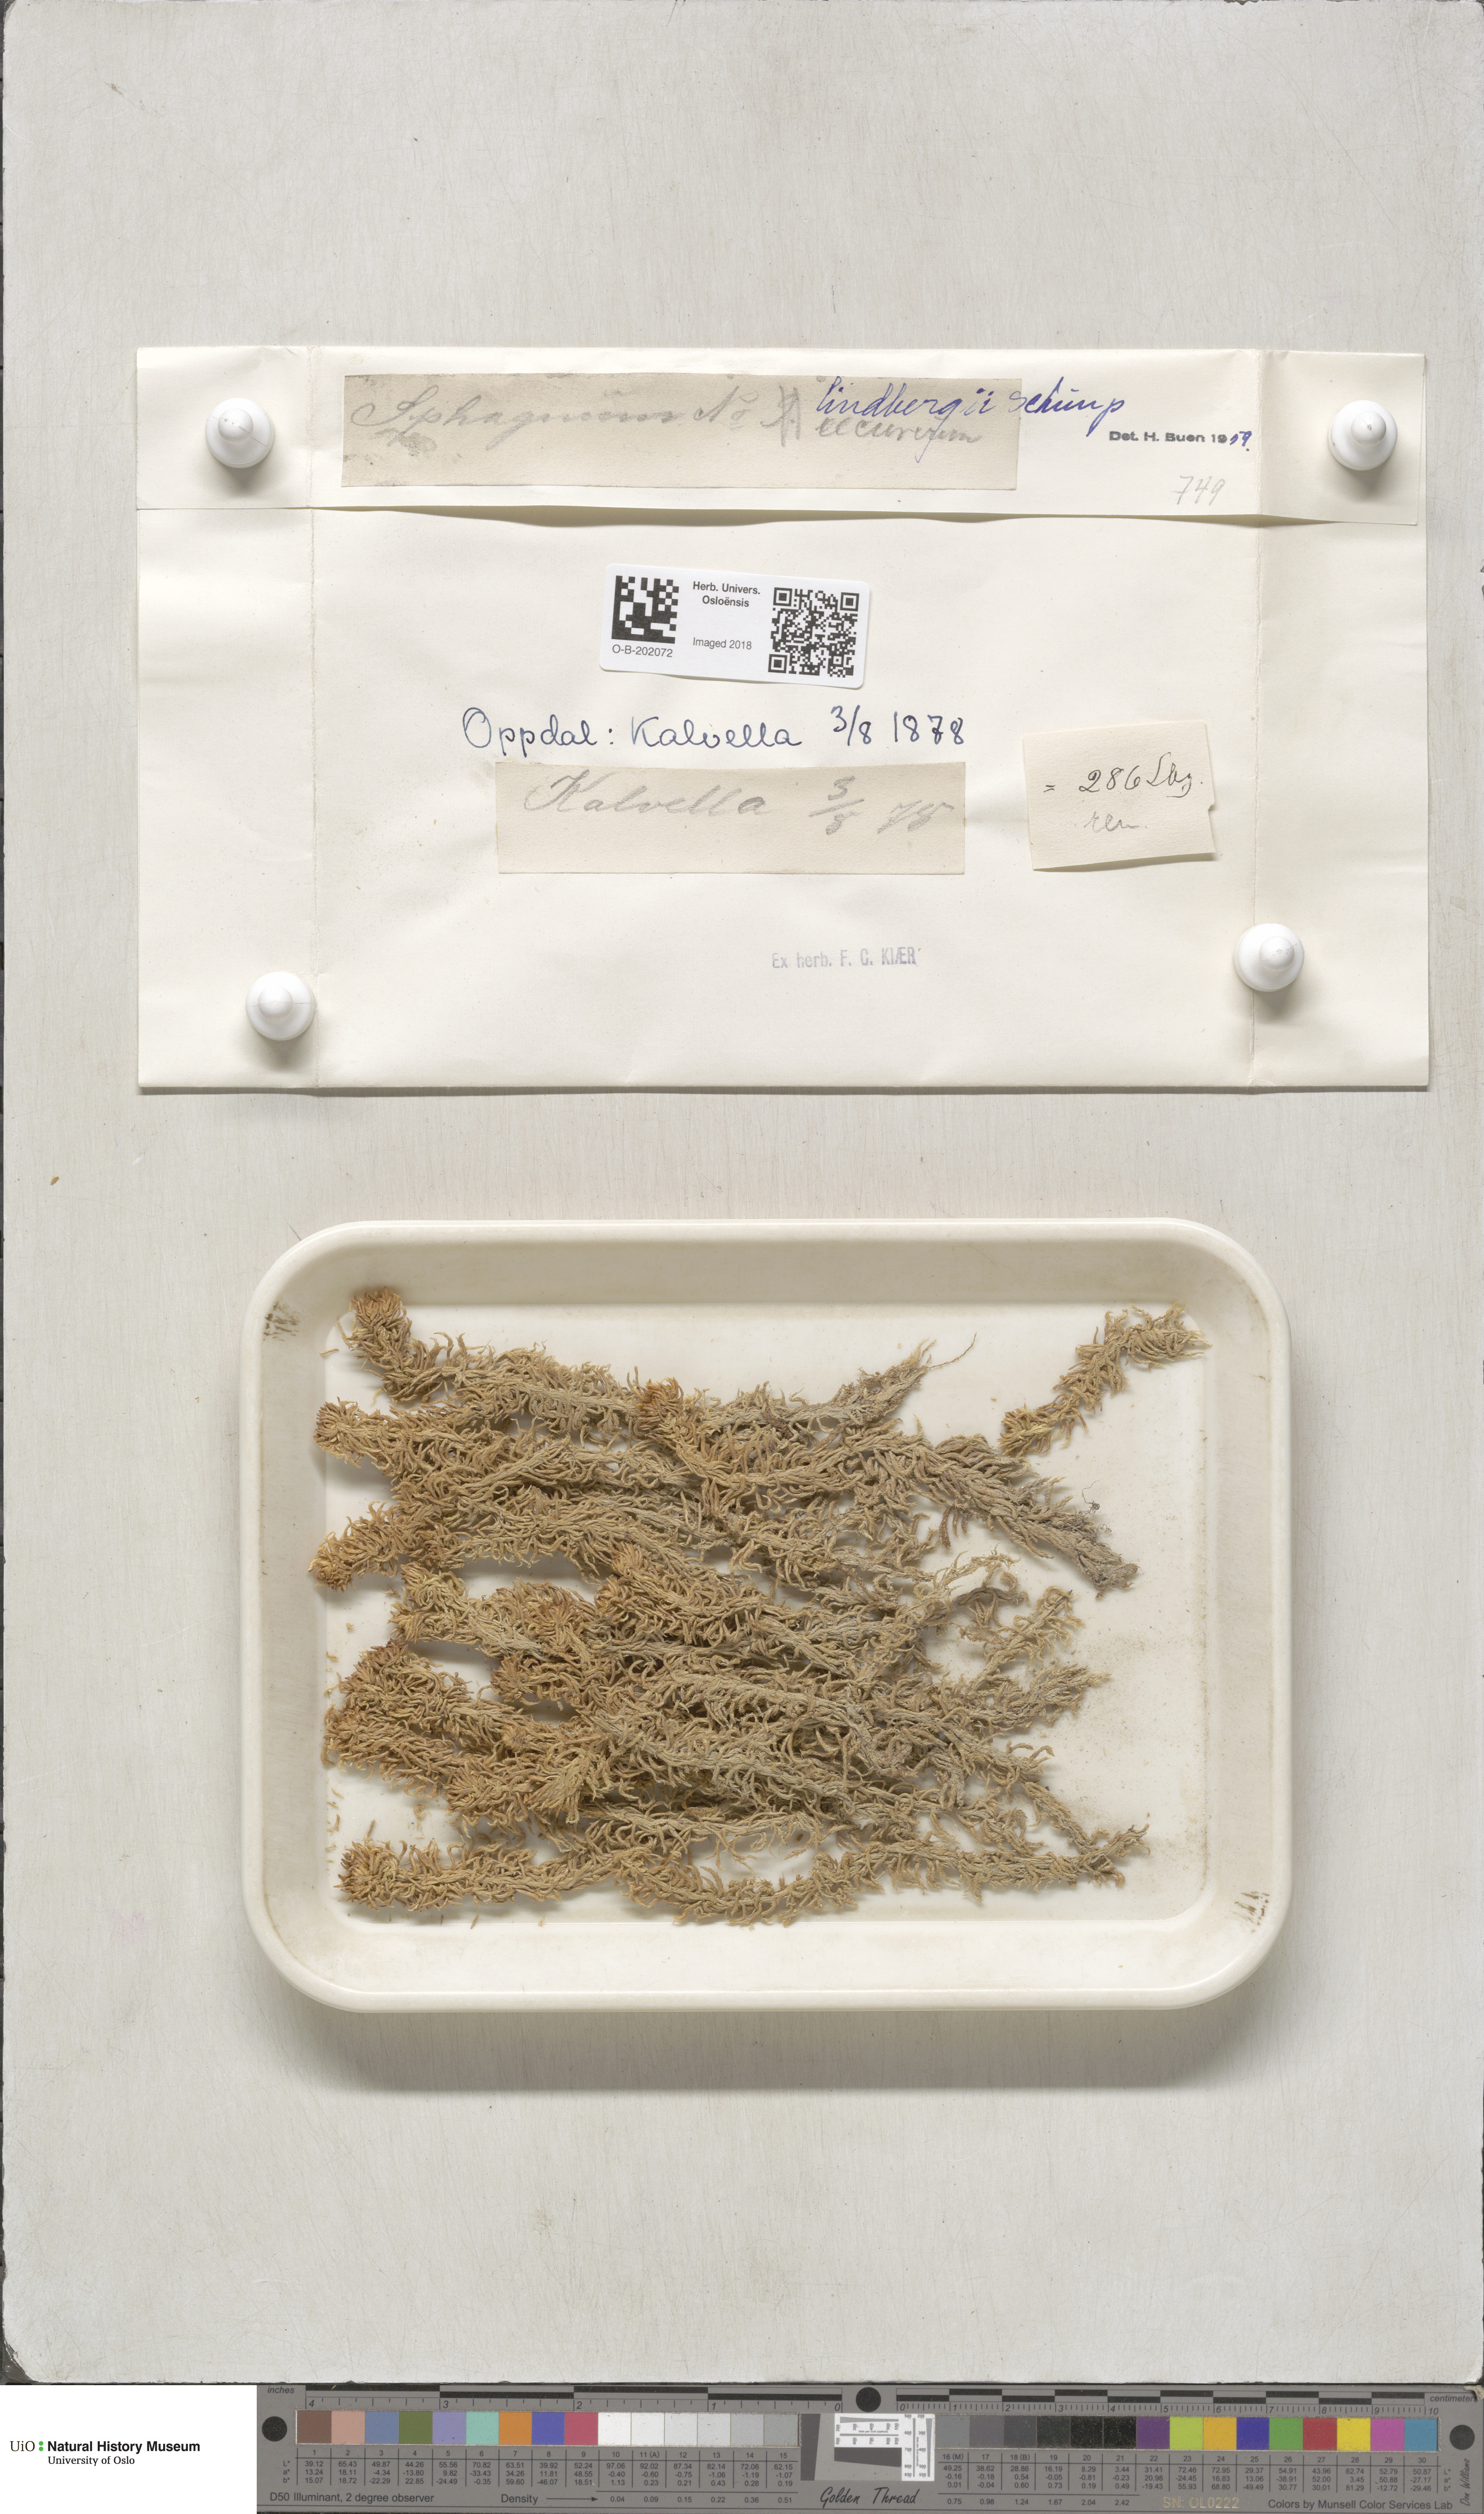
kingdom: Plantae
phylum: Bryophyta
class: Sphagnopsida
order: Sphagnales
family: Sphagnaceae
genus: Sphagnum
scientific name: Sphagnum lindbergii
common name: Lindberg's peat moss
